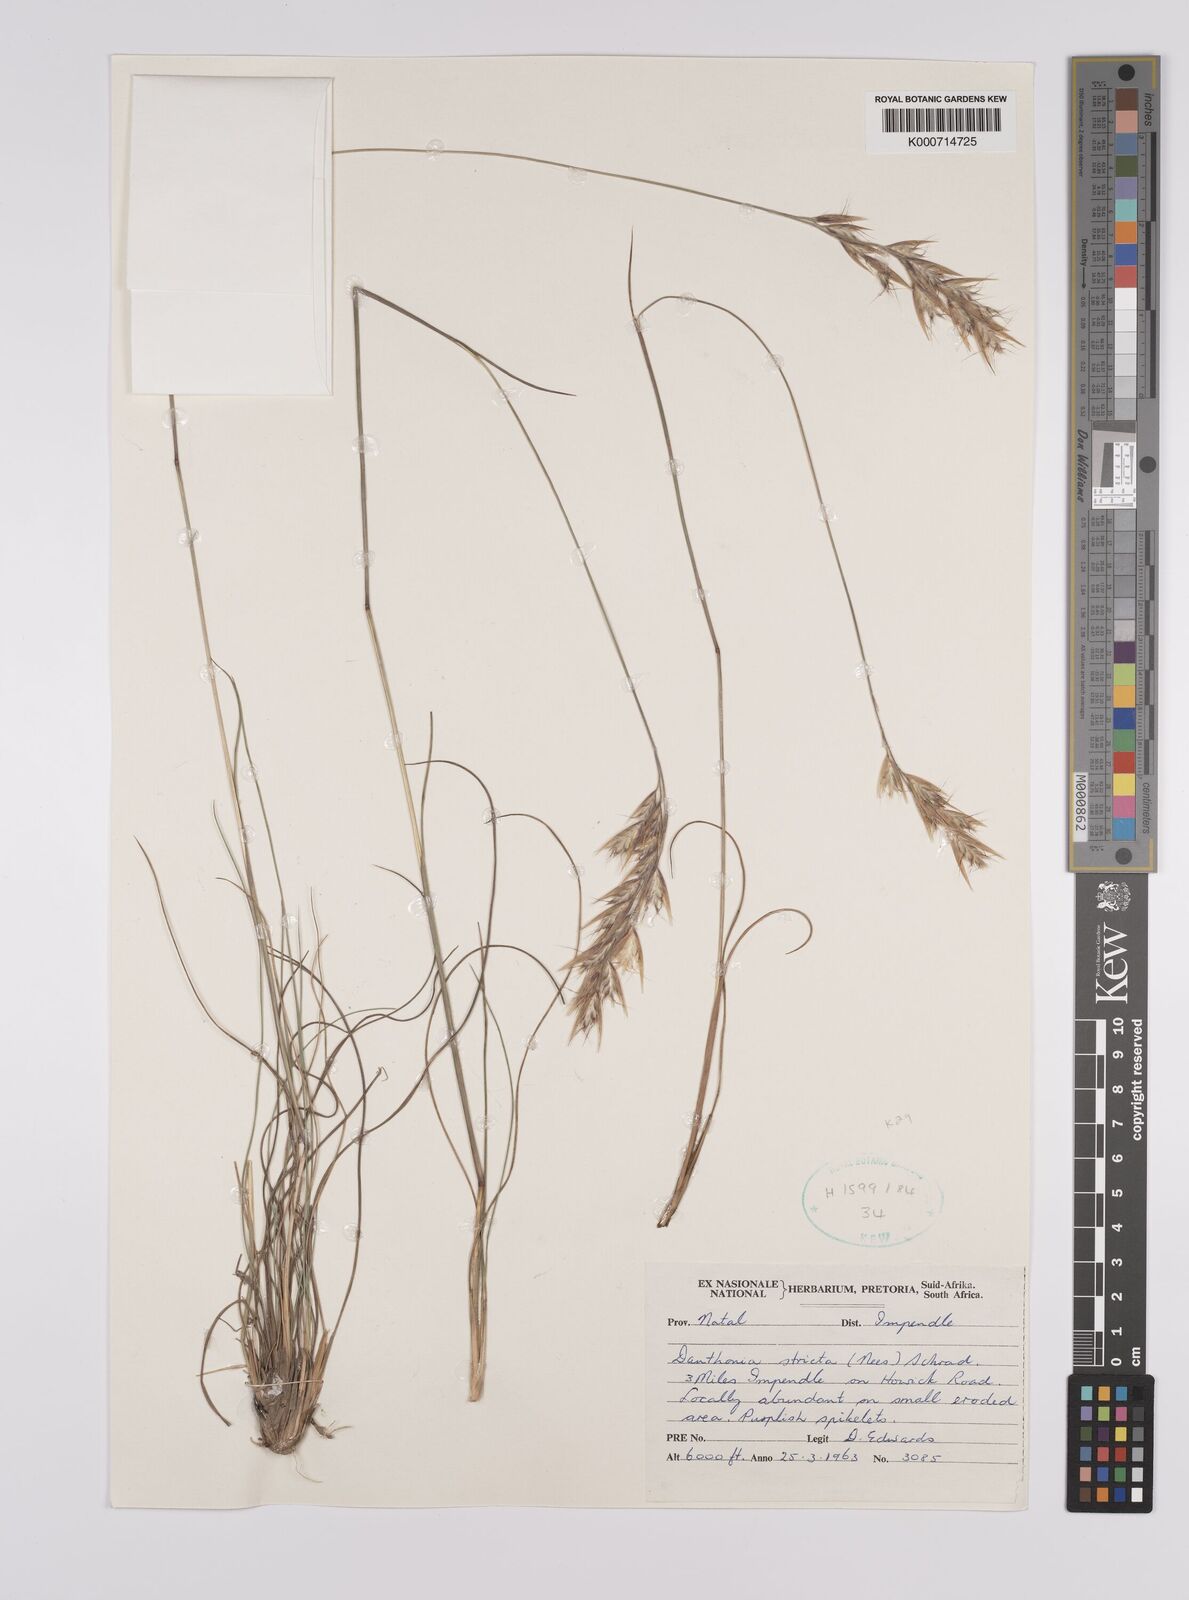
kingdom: Plantae
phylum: Tracheophyta
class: Liliopsida
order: Poales
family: Poaceae
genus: Rytidosperma
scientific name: Rytidosperma
